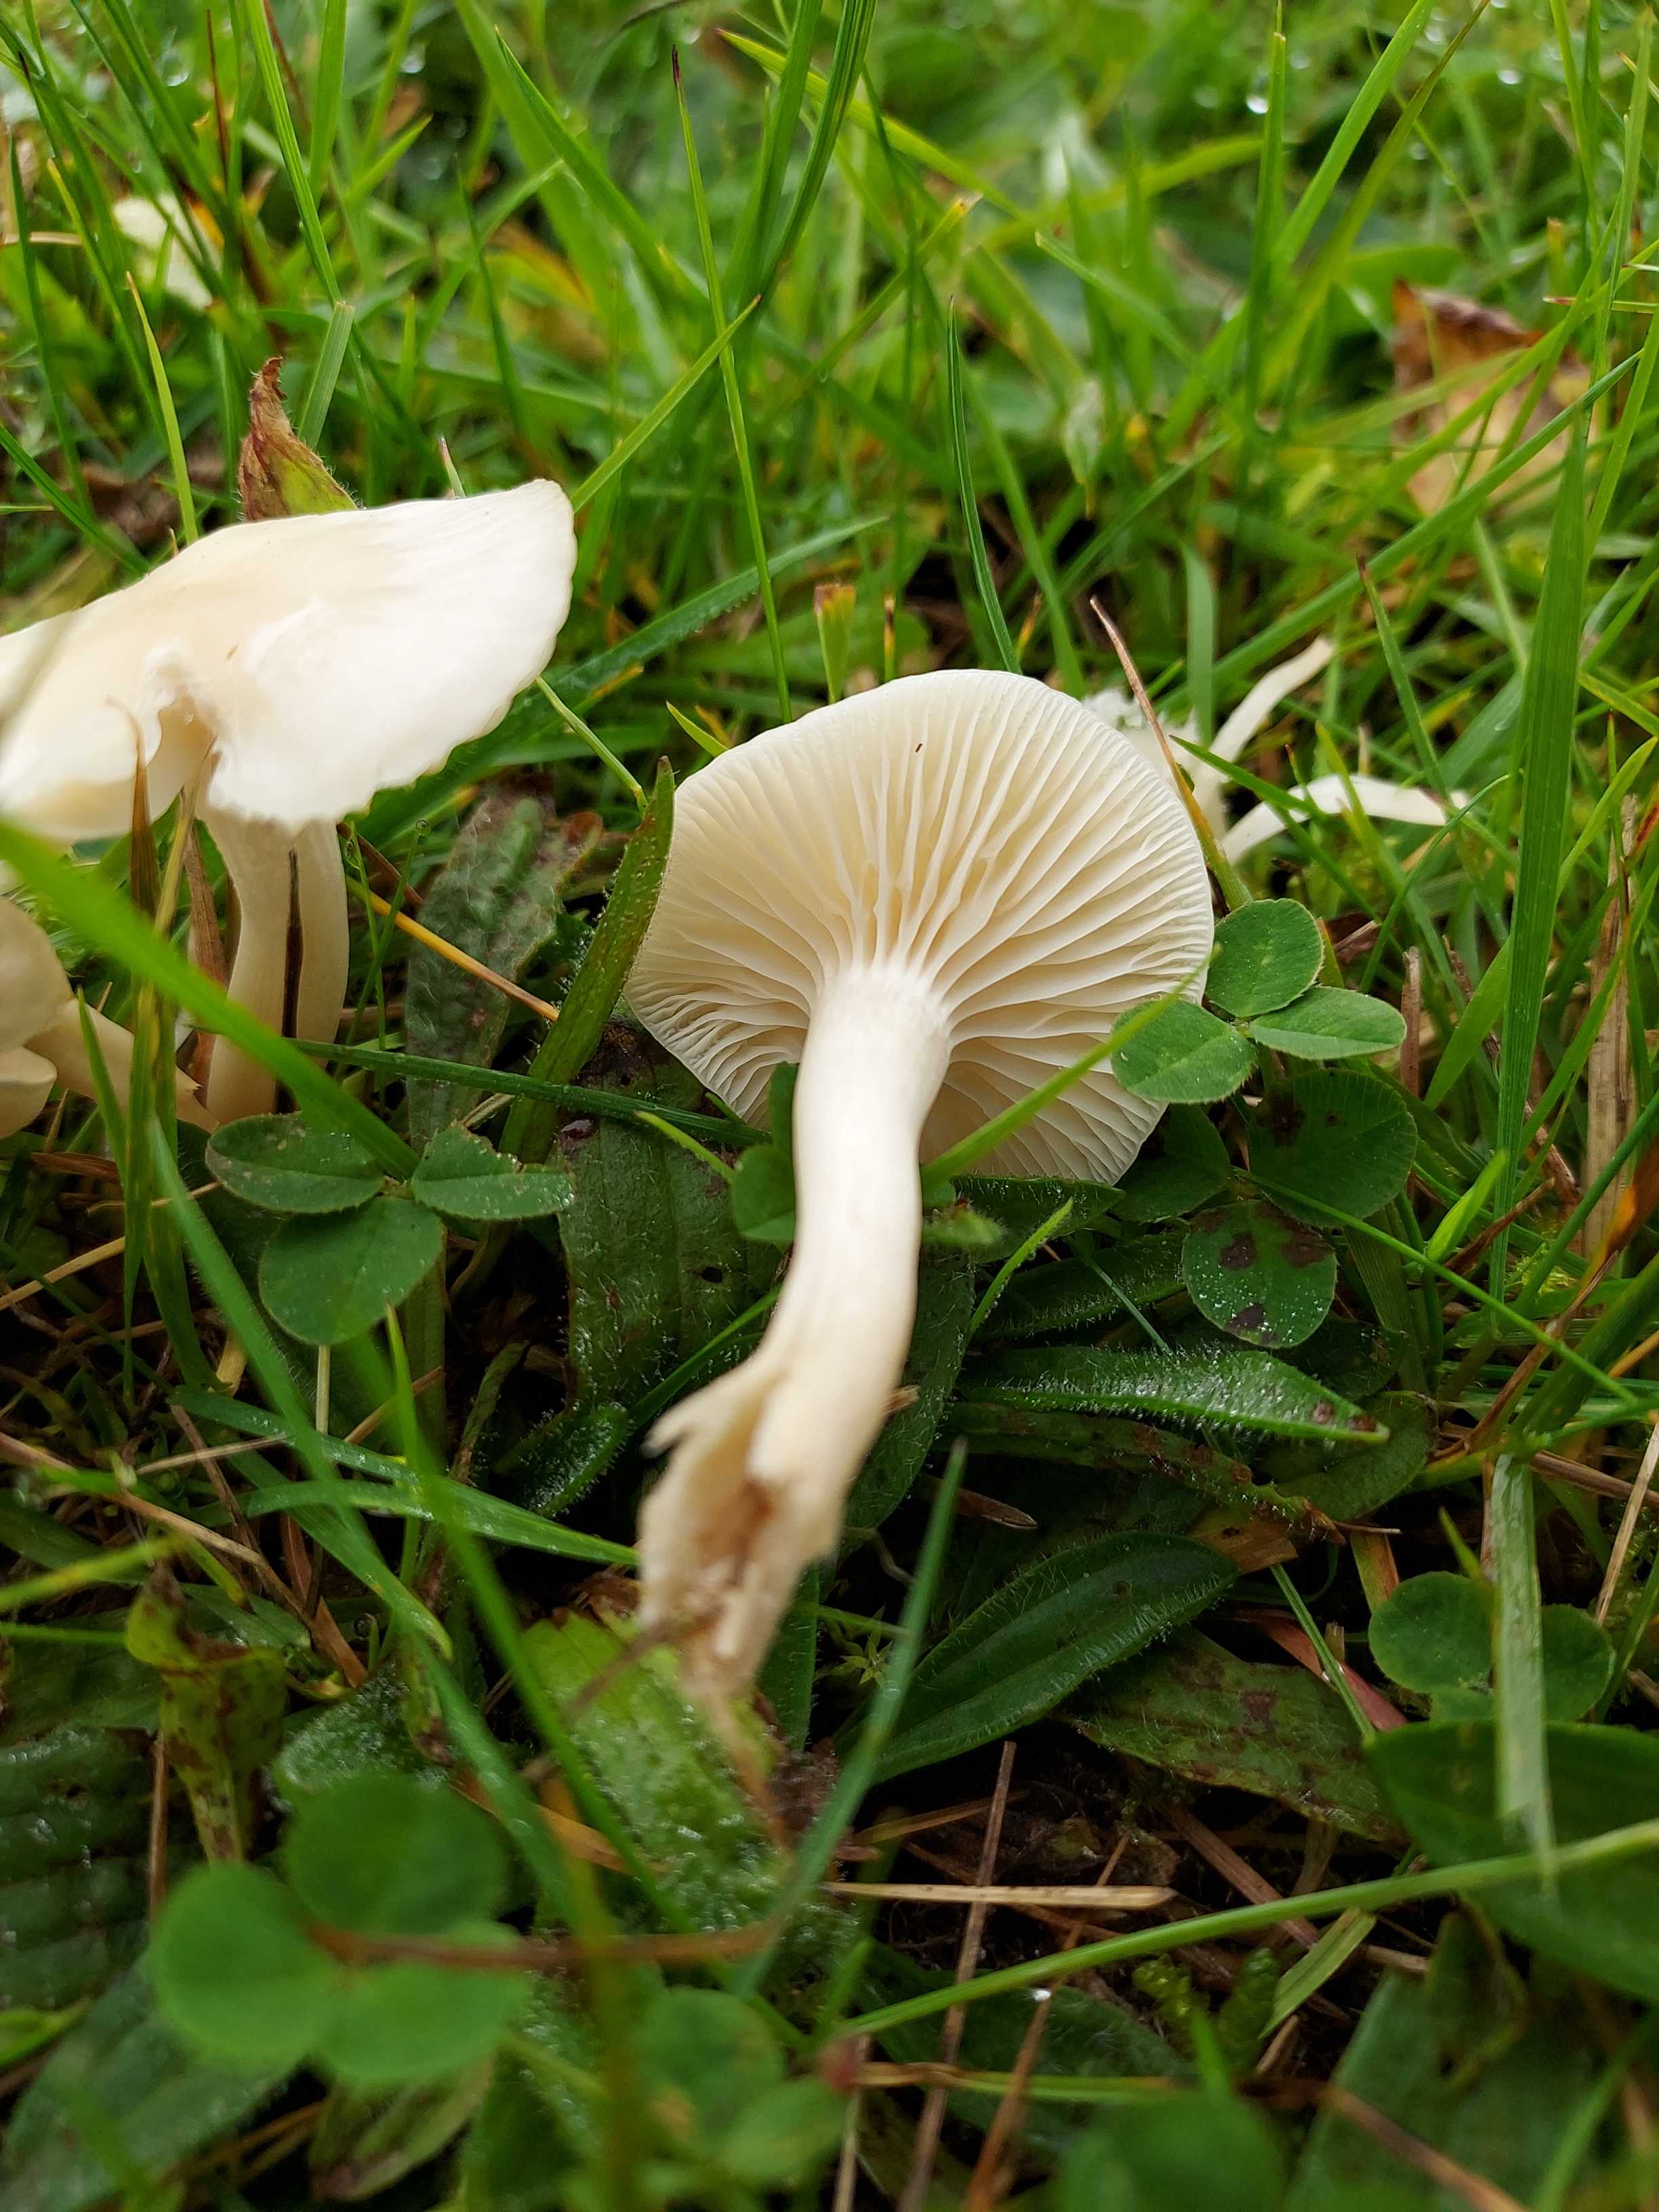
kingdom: Fungi
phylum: Basidiomycota
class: Agaricomycetes
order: Agaricales
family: Hygrophoraceae
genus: Cuphophyllus
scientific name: Cuphophyllus virgineus
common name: snehvid vokshat
